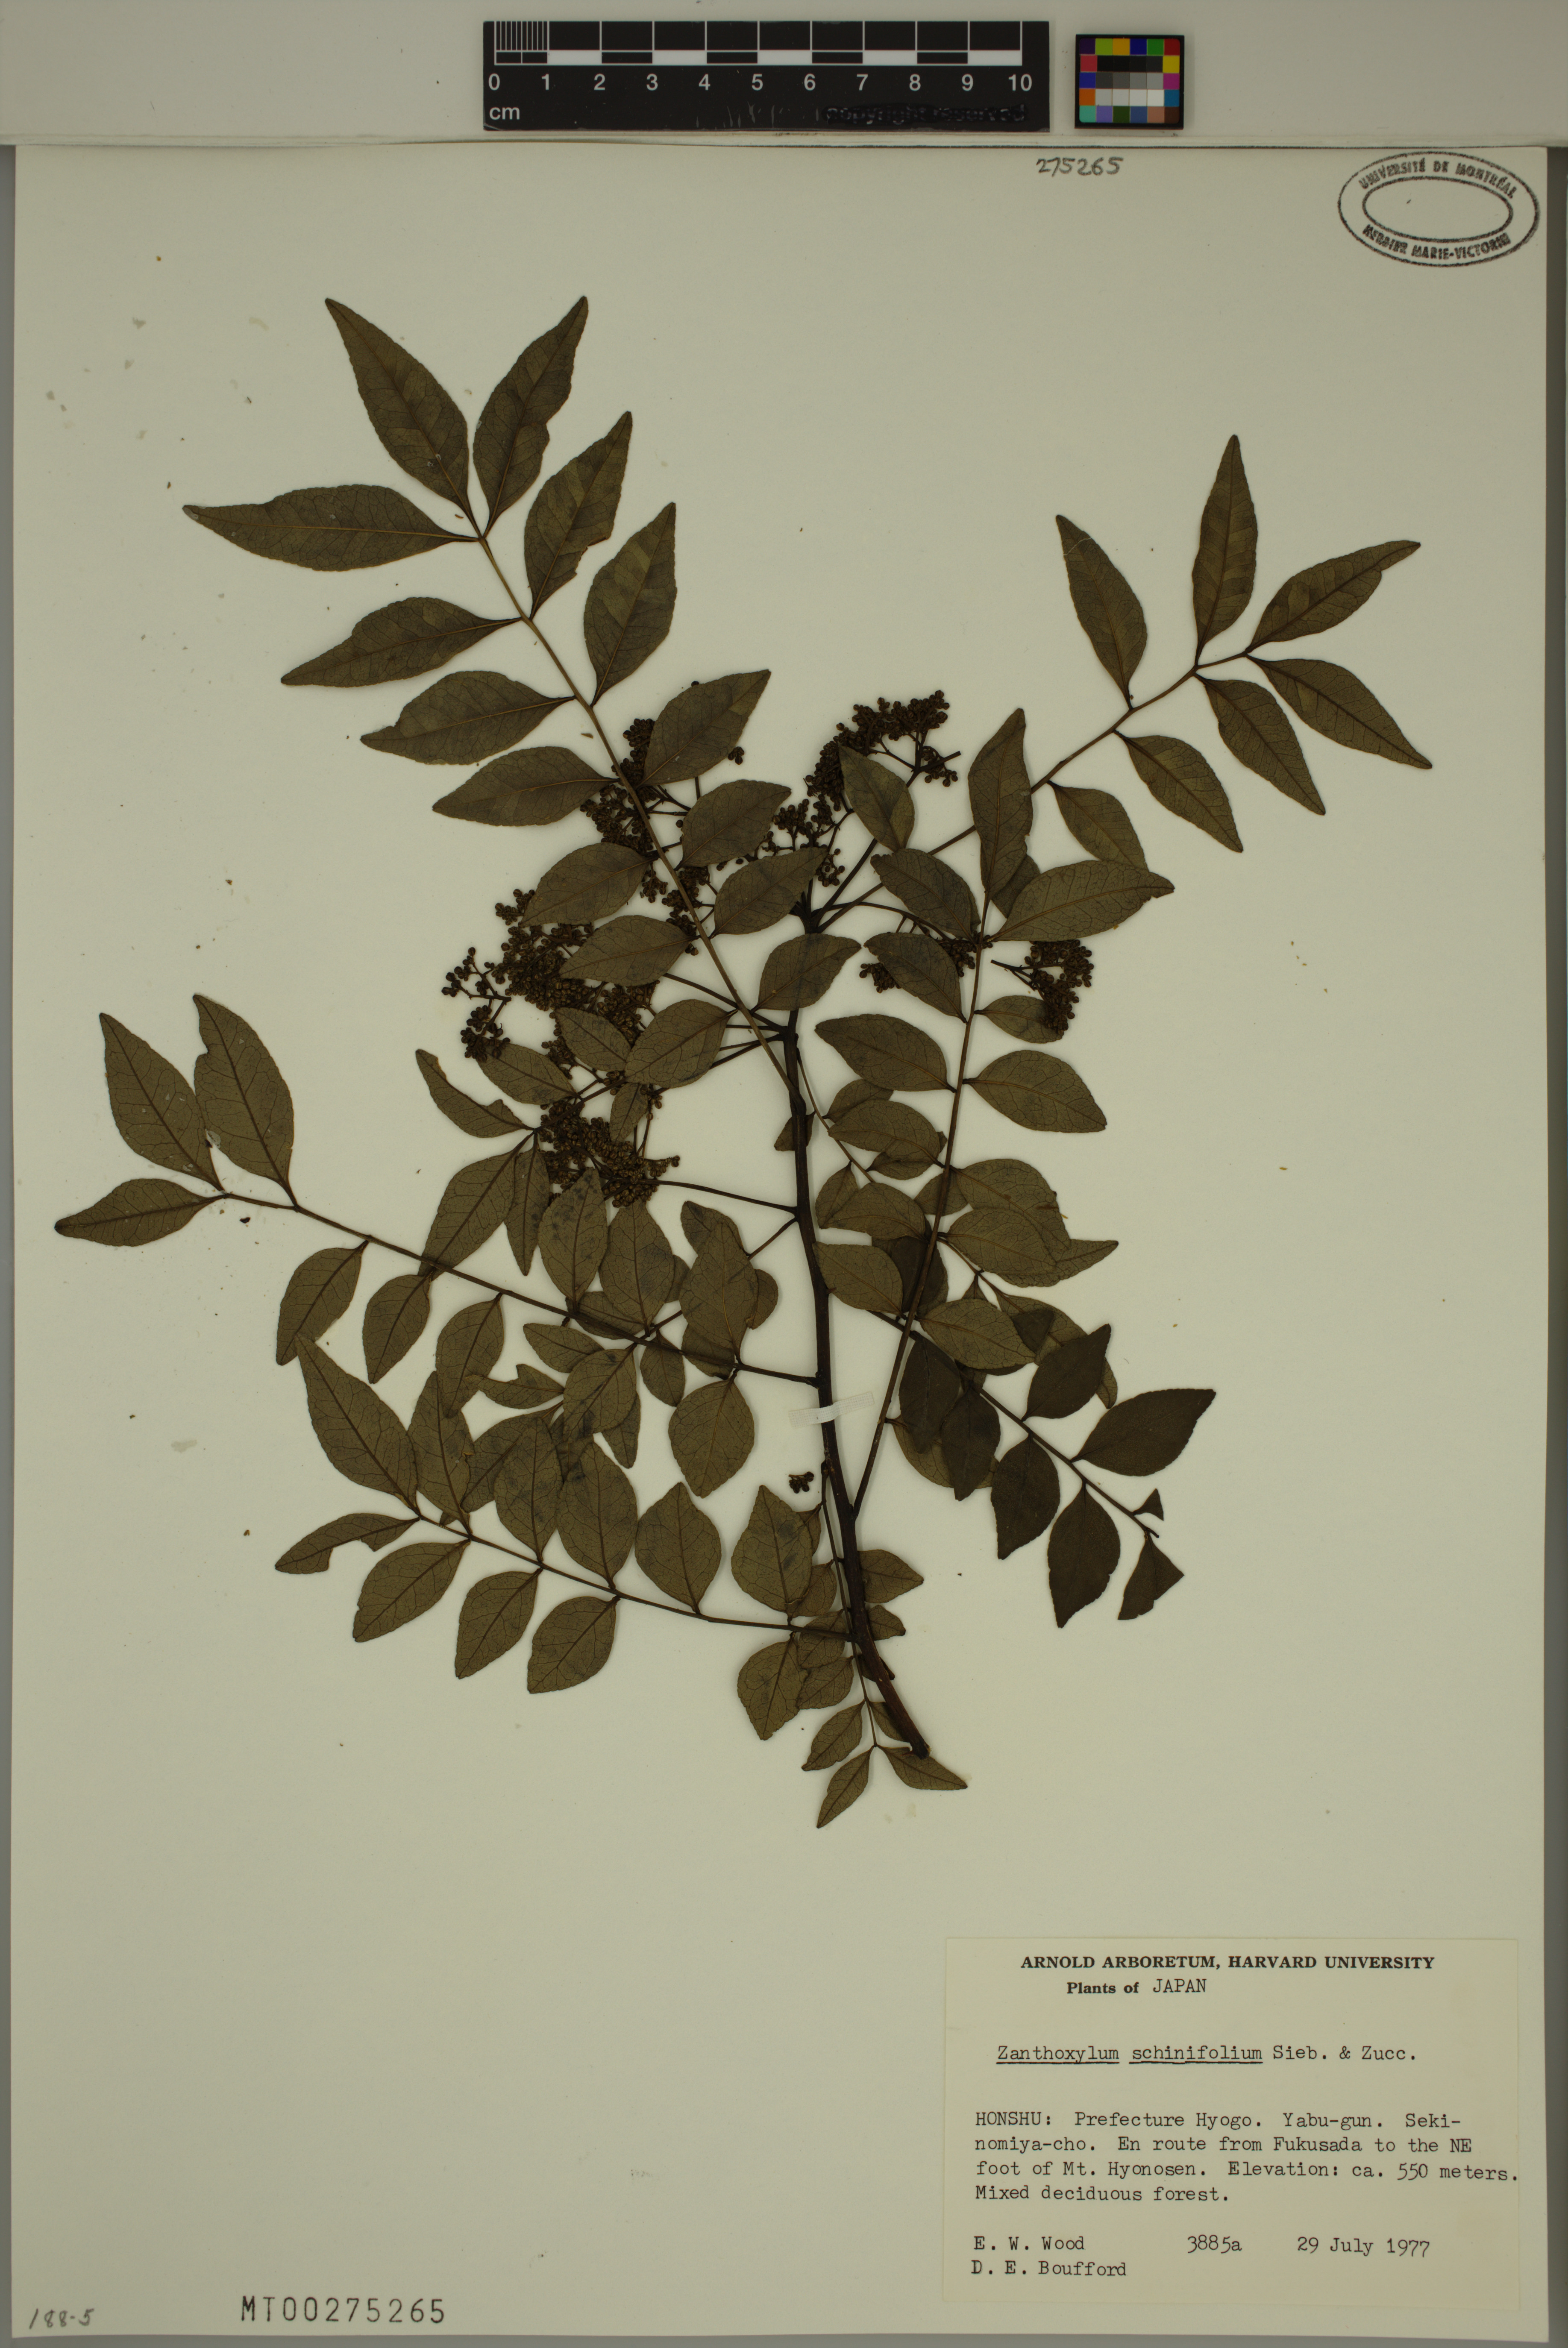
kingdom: Plantae
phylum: Tracheophyta
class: Magnoliopsida
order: Sapindales
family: Rutaceae
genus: Zanthoxylum
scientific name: Zanthoxylum schinifolium
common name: Sichuan-pepper
